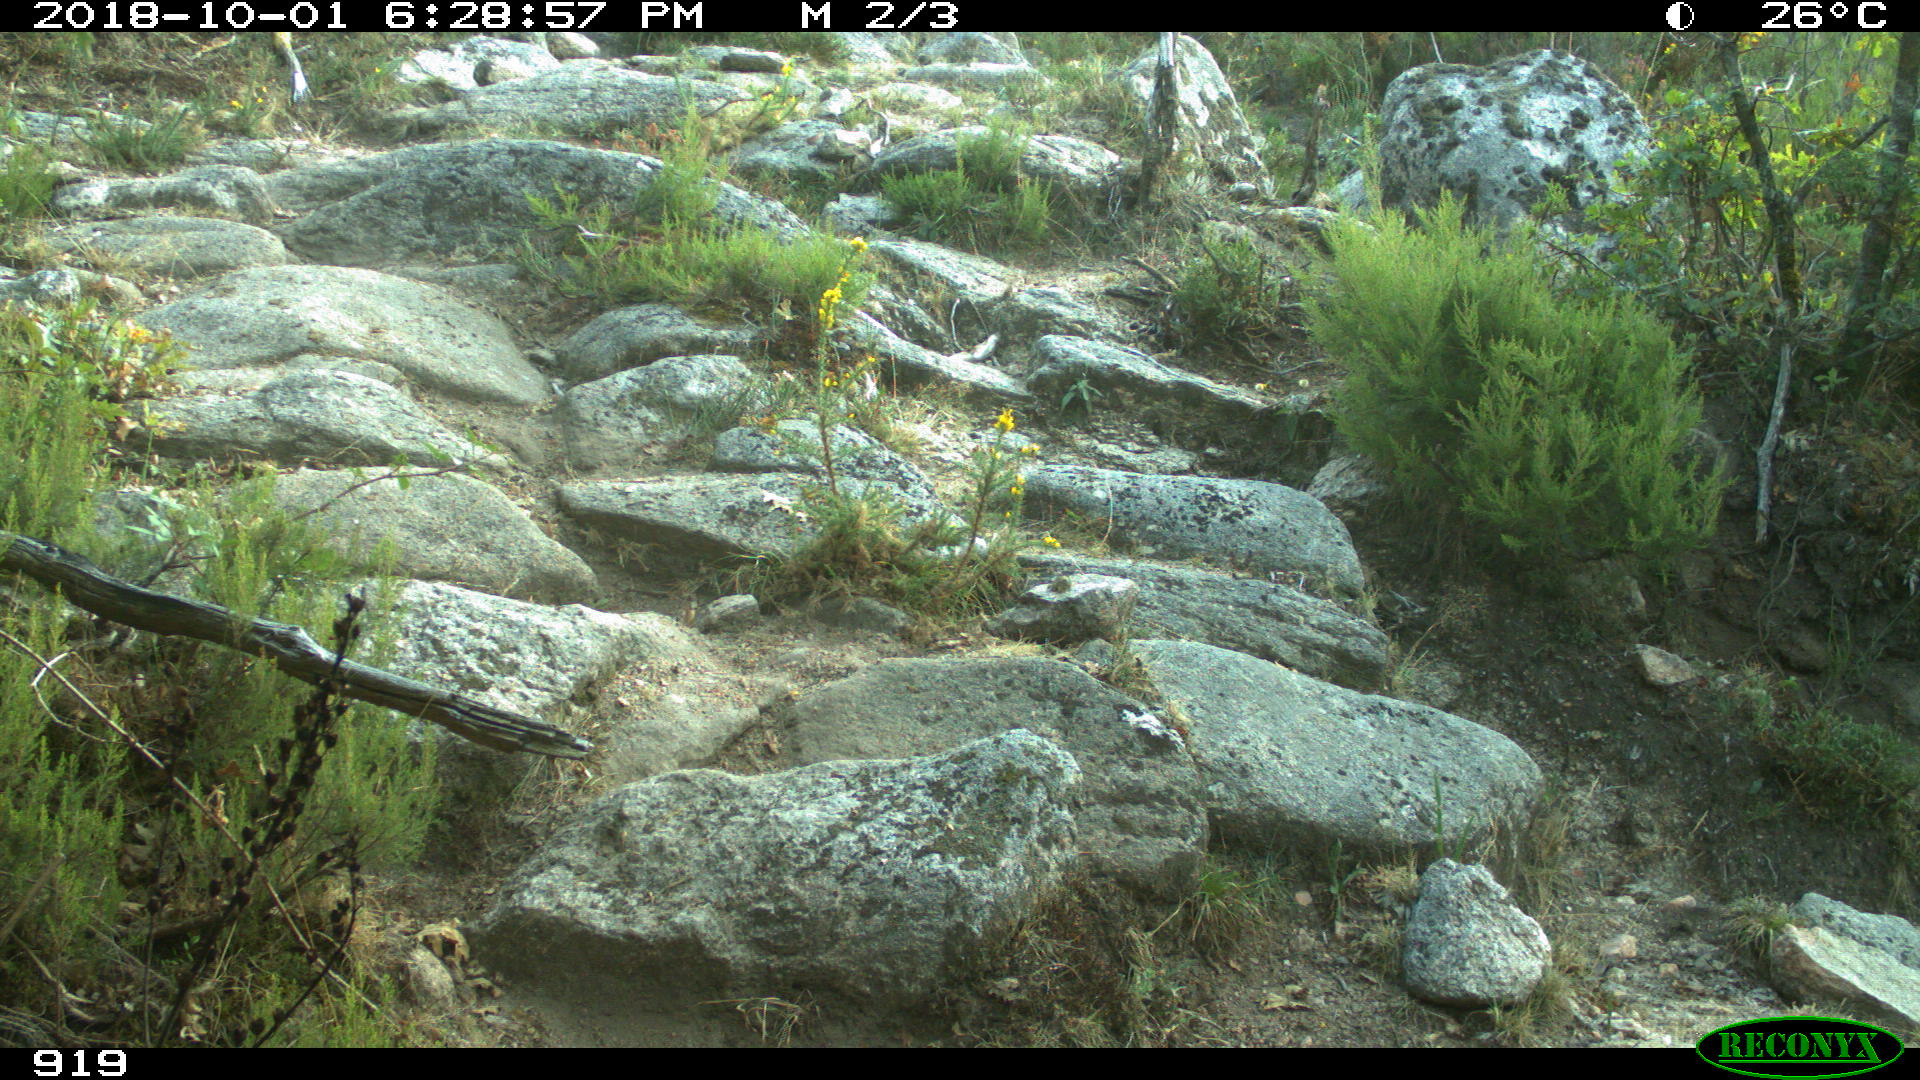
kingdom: Animalia
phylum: Chordata
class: Mammalia
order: Artiodactyla
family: Bovidae
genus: Bos
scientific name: Bos taurus
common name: Domesticated cattle
